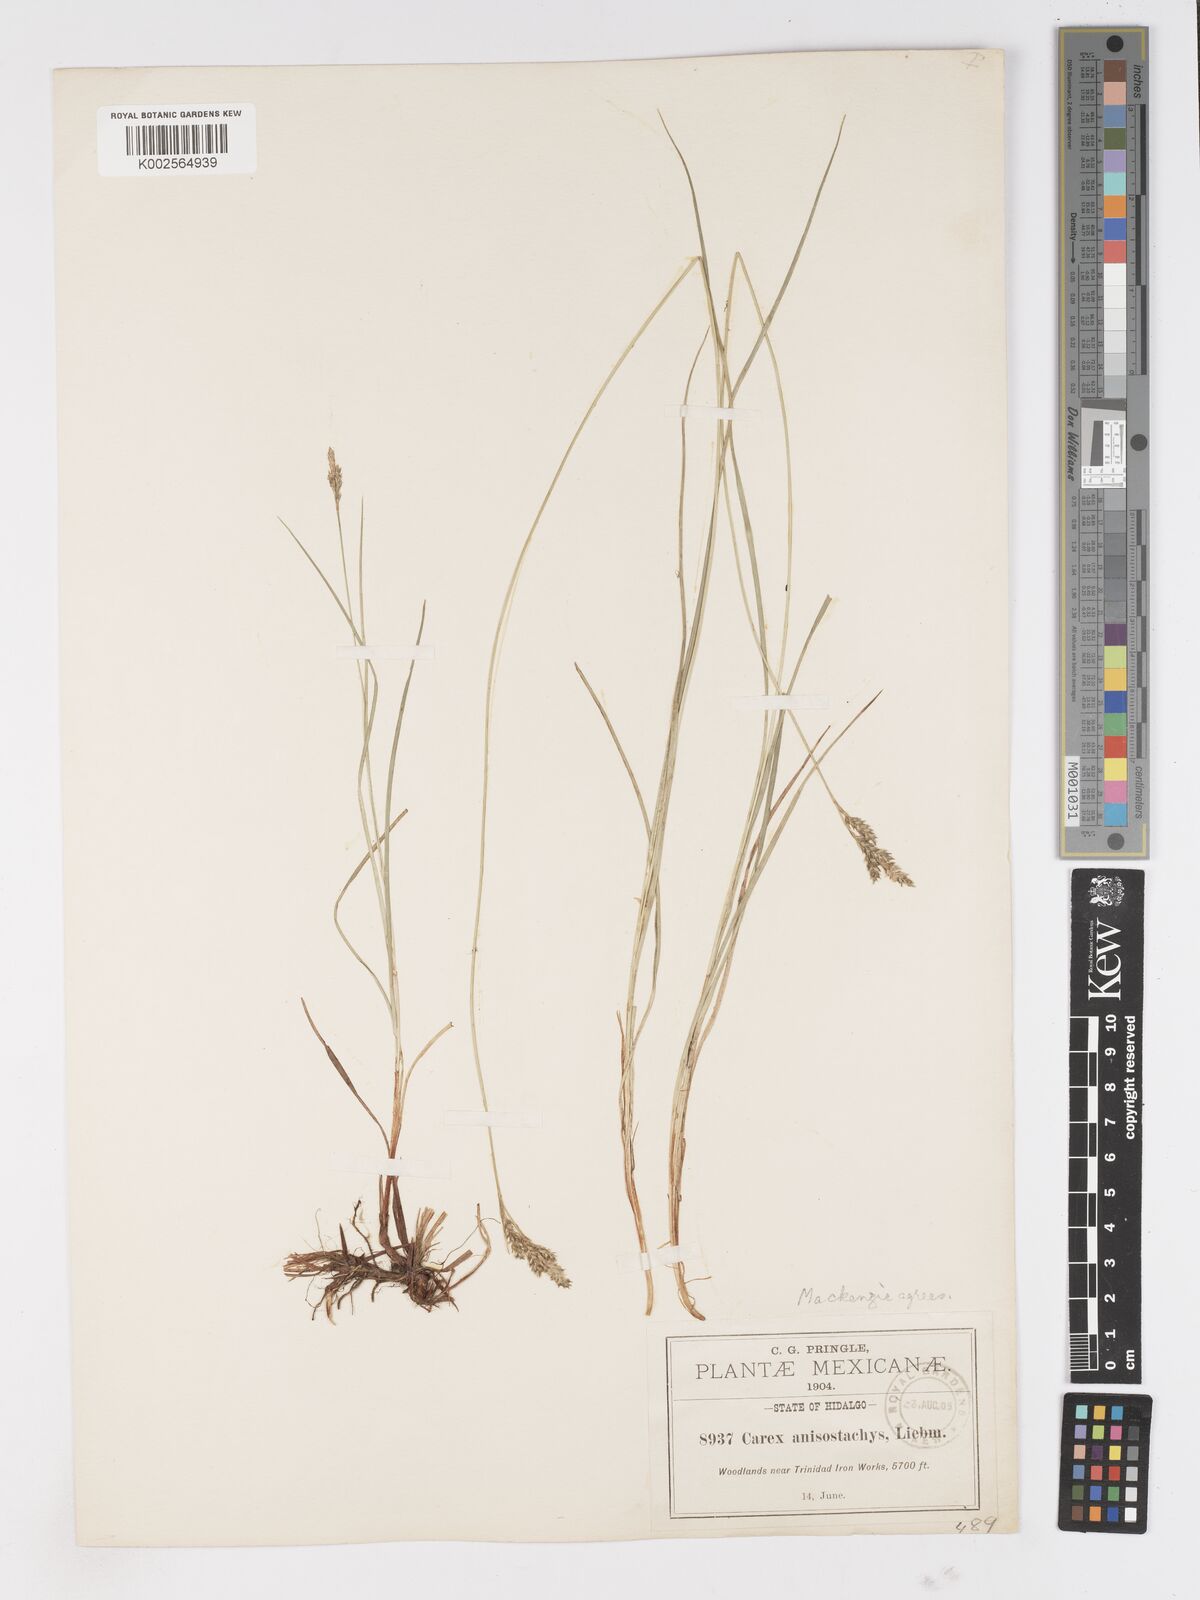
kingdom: Plantae
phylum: Tracheophyta
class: Liliopsida
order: Poales
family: Cyperaceae
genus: Carex
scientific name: Carex anisostachys
